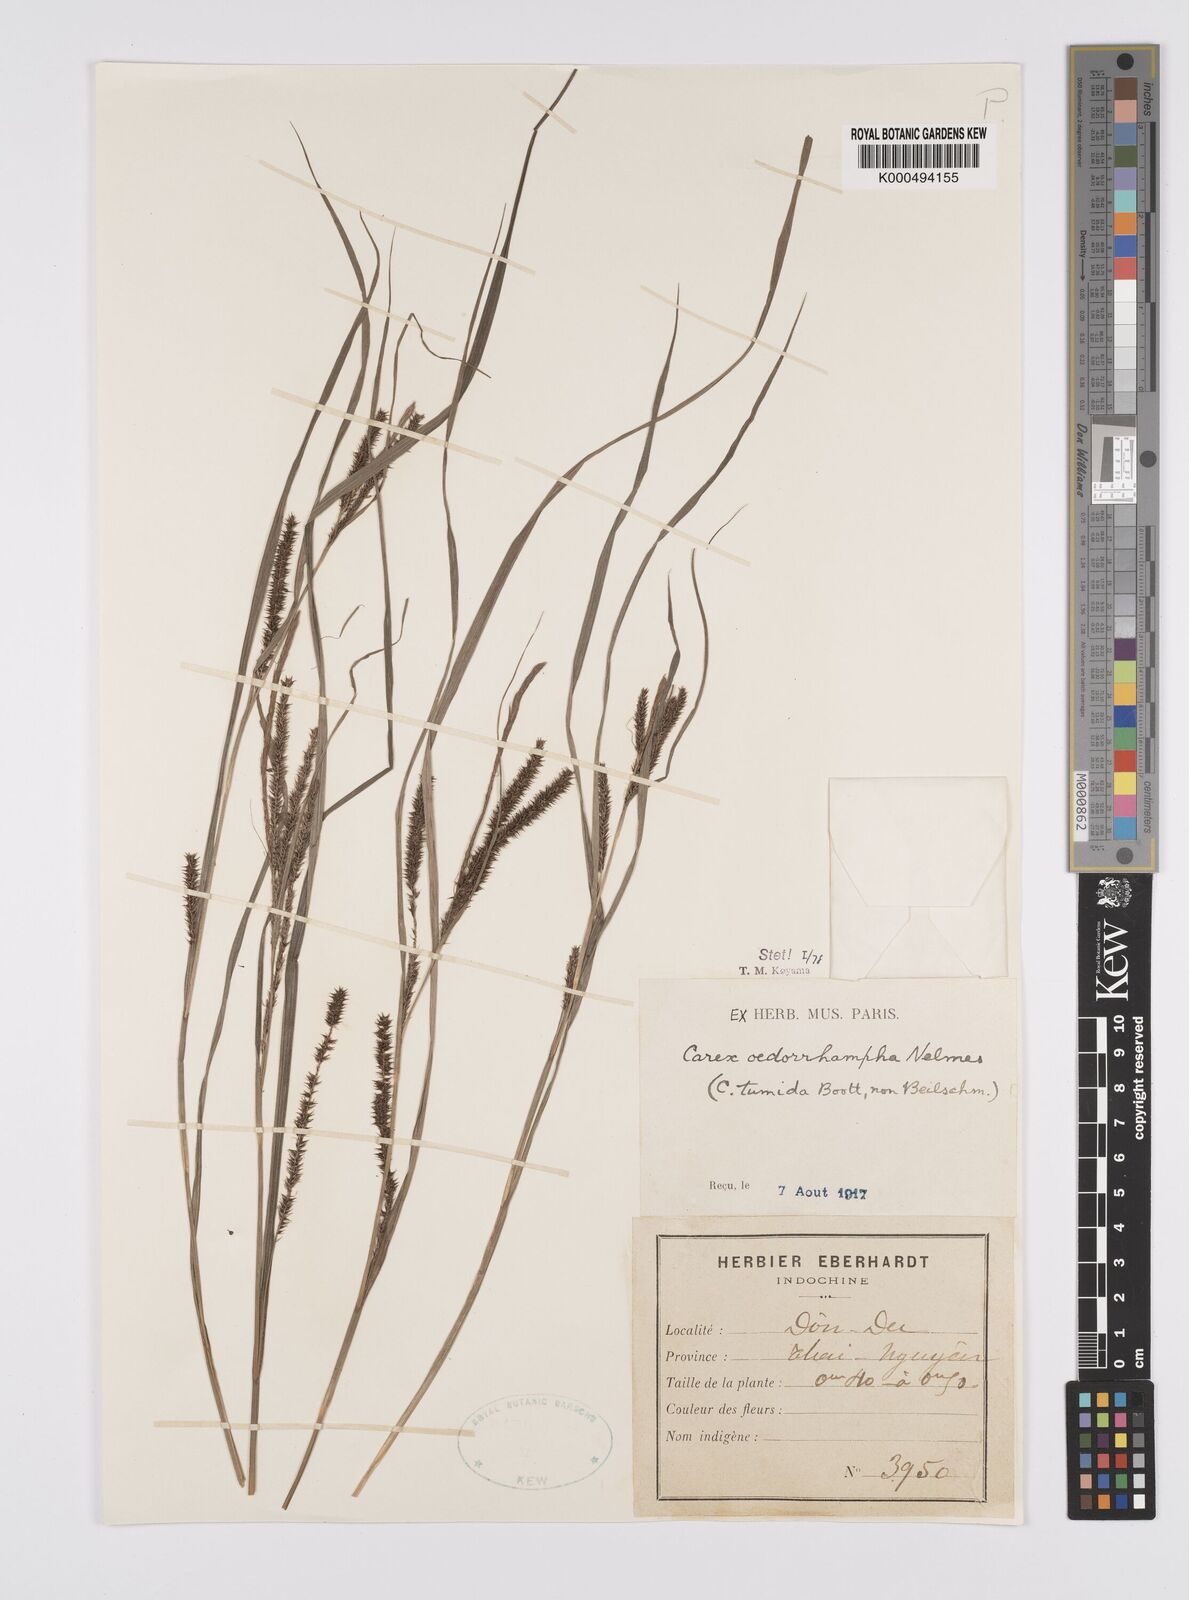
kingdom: Plantae
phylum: Tracheophyta
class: Liliopsida
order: Poales
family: Cyperaceae
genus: Carex
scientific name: Carex tumida
